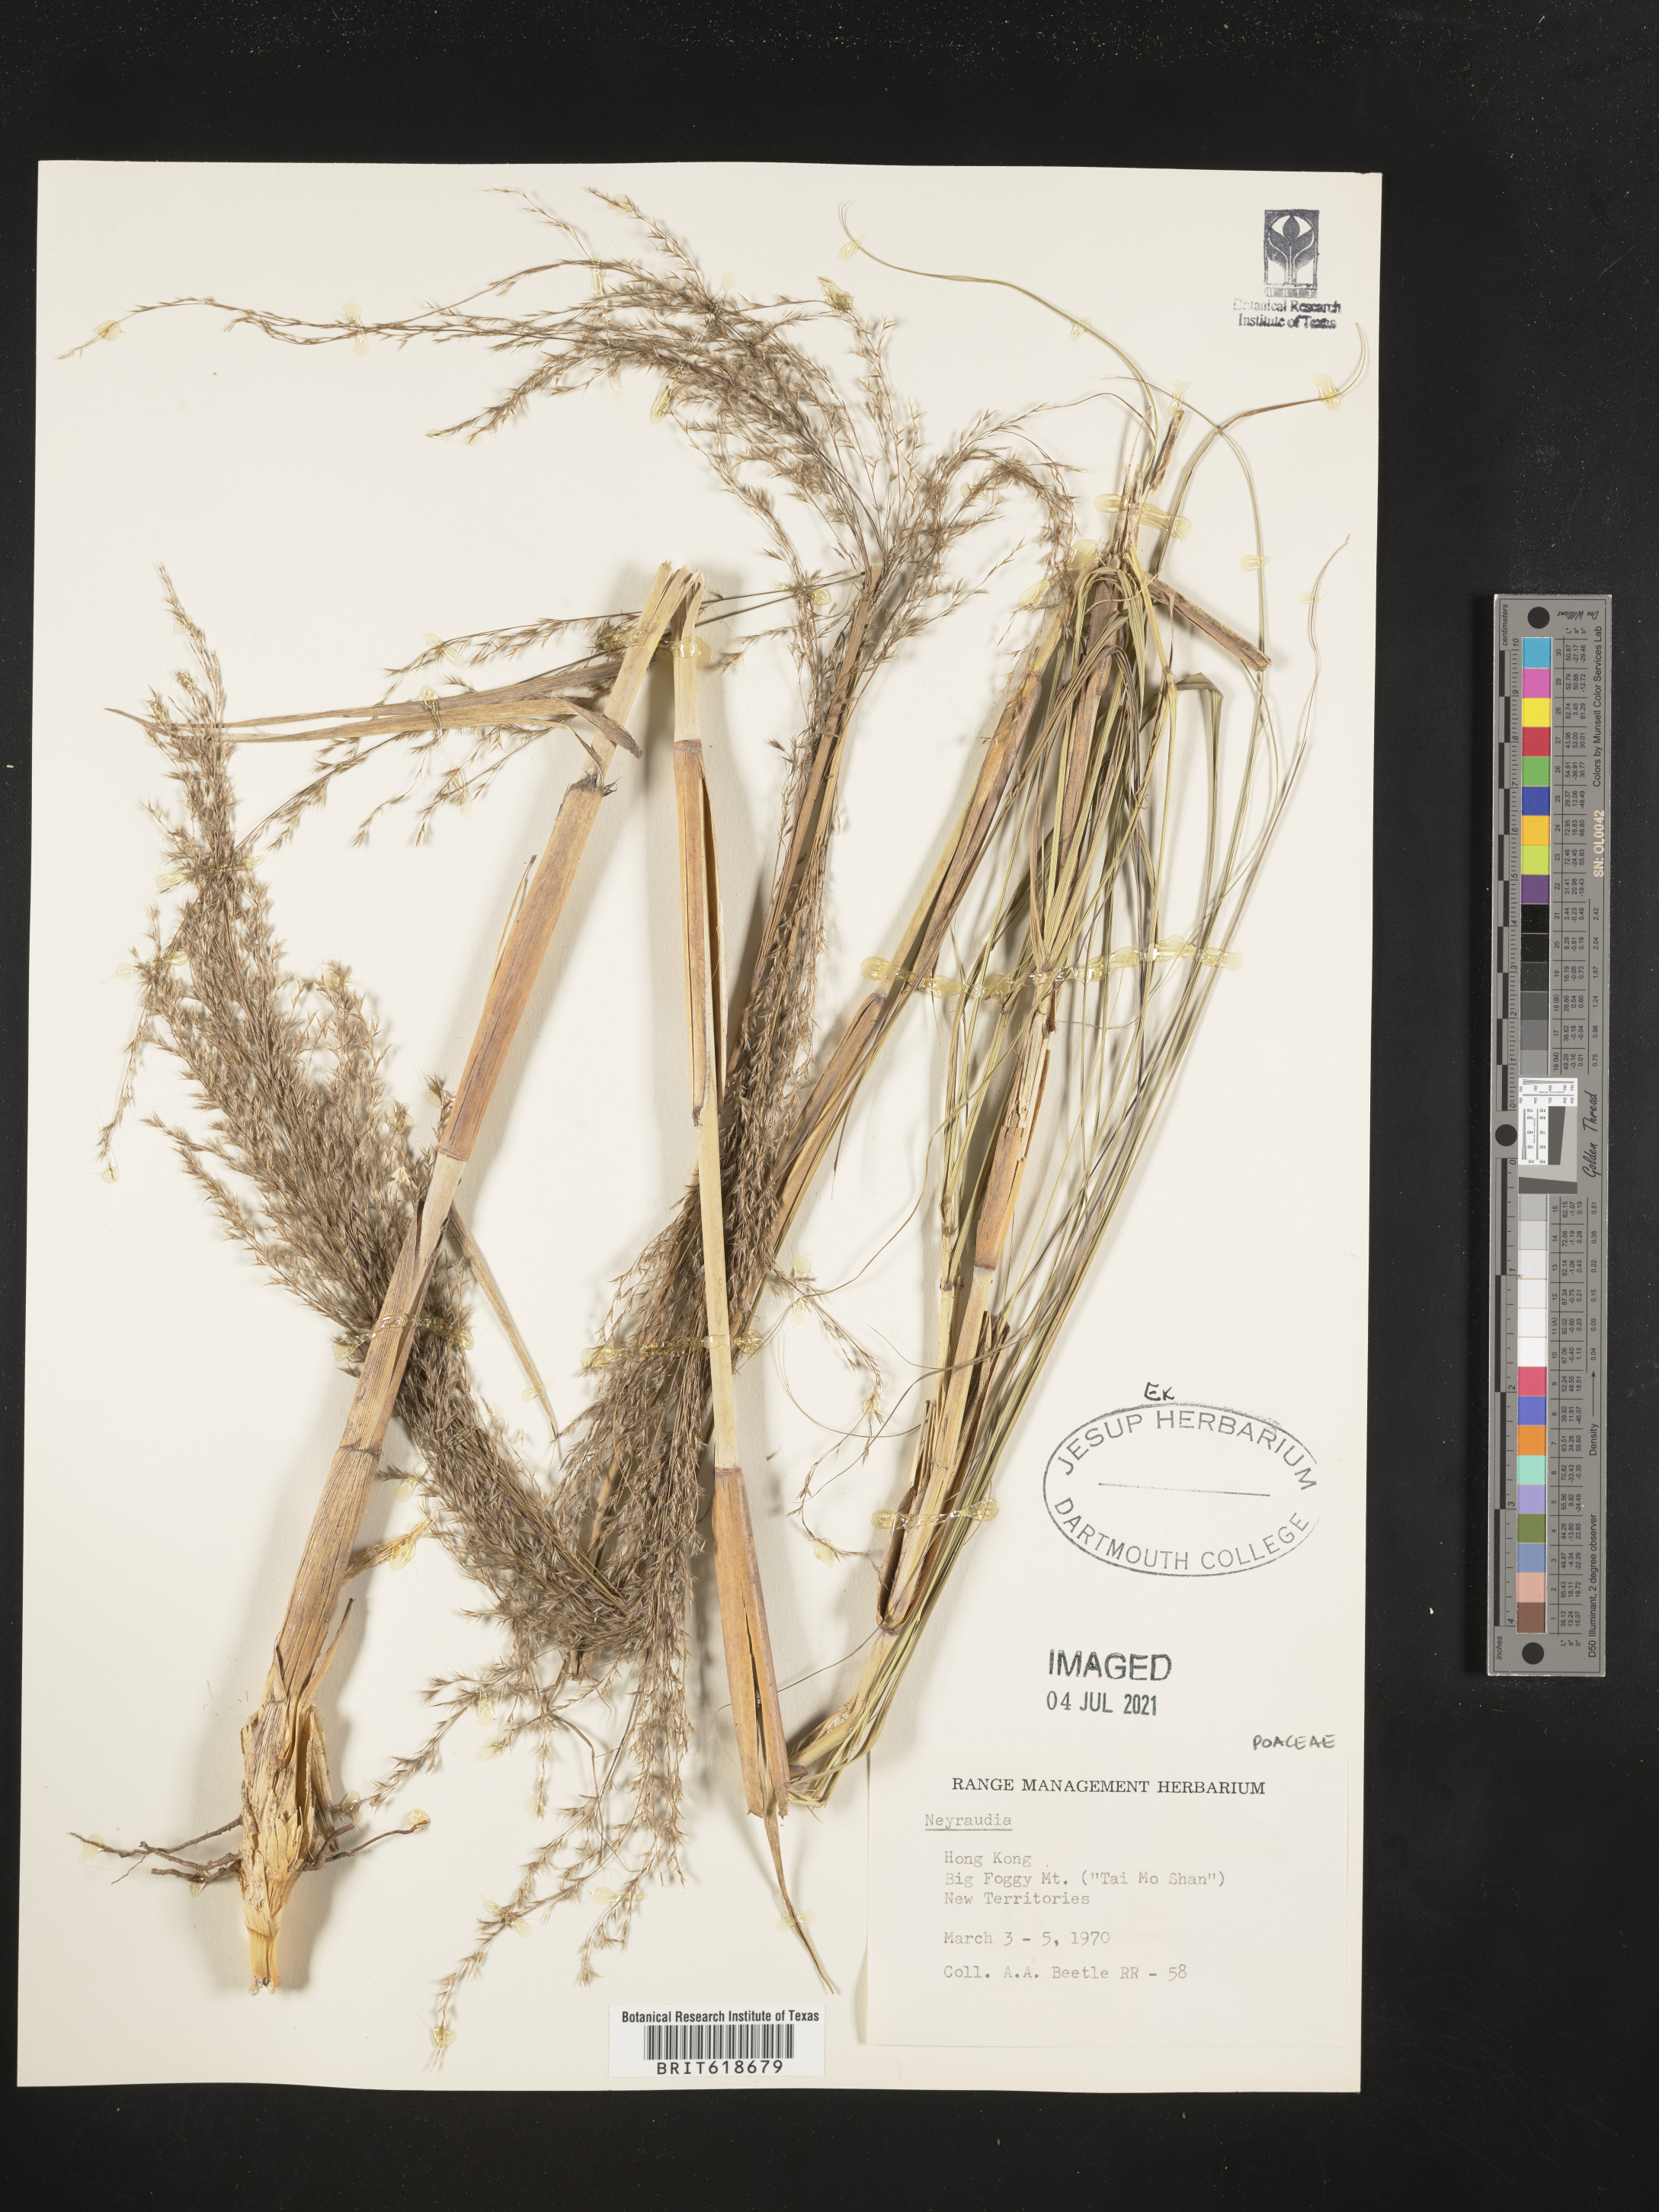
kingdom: Plantae
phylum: Tracheophyta
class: Liliopsida
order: Poales
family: Poaceae
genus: Neyraudia
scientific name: Neyraudia
